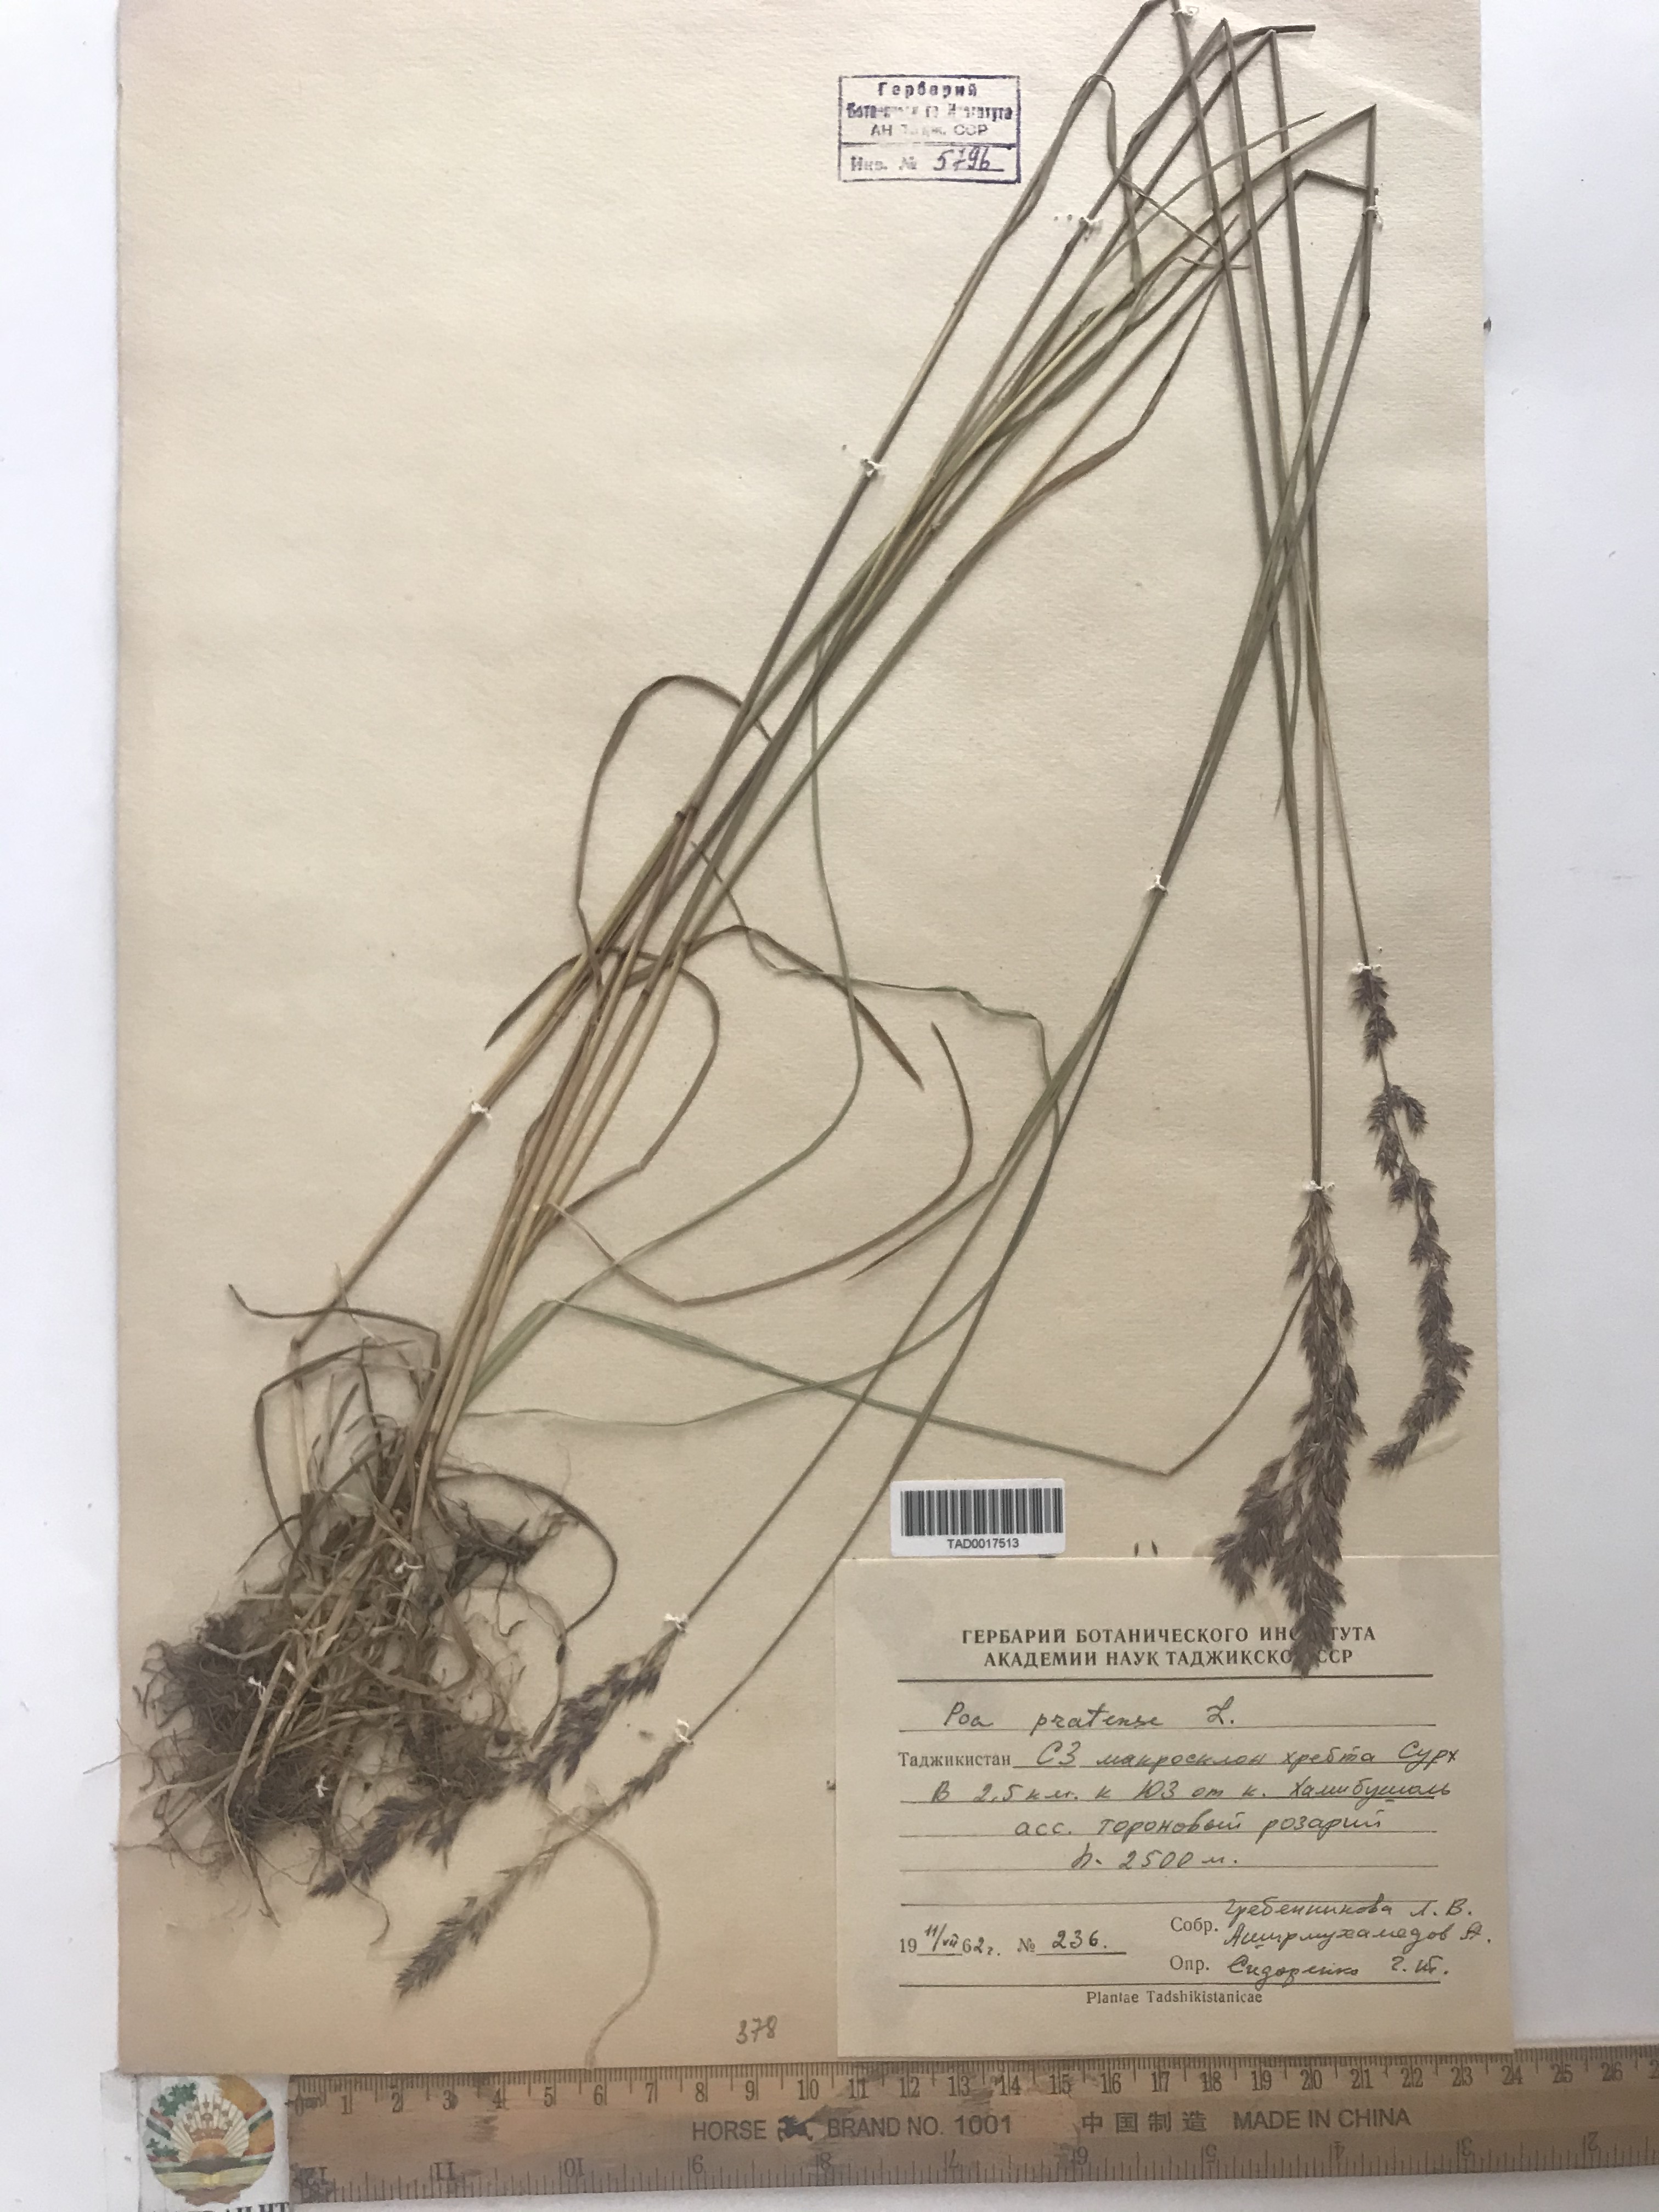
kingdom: Plantae
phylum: Tracheophyta
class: Liliopsida
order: Poales
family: Poaceae
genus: Poa
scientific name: Poa pratensis
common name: Kentucky bluegrass
